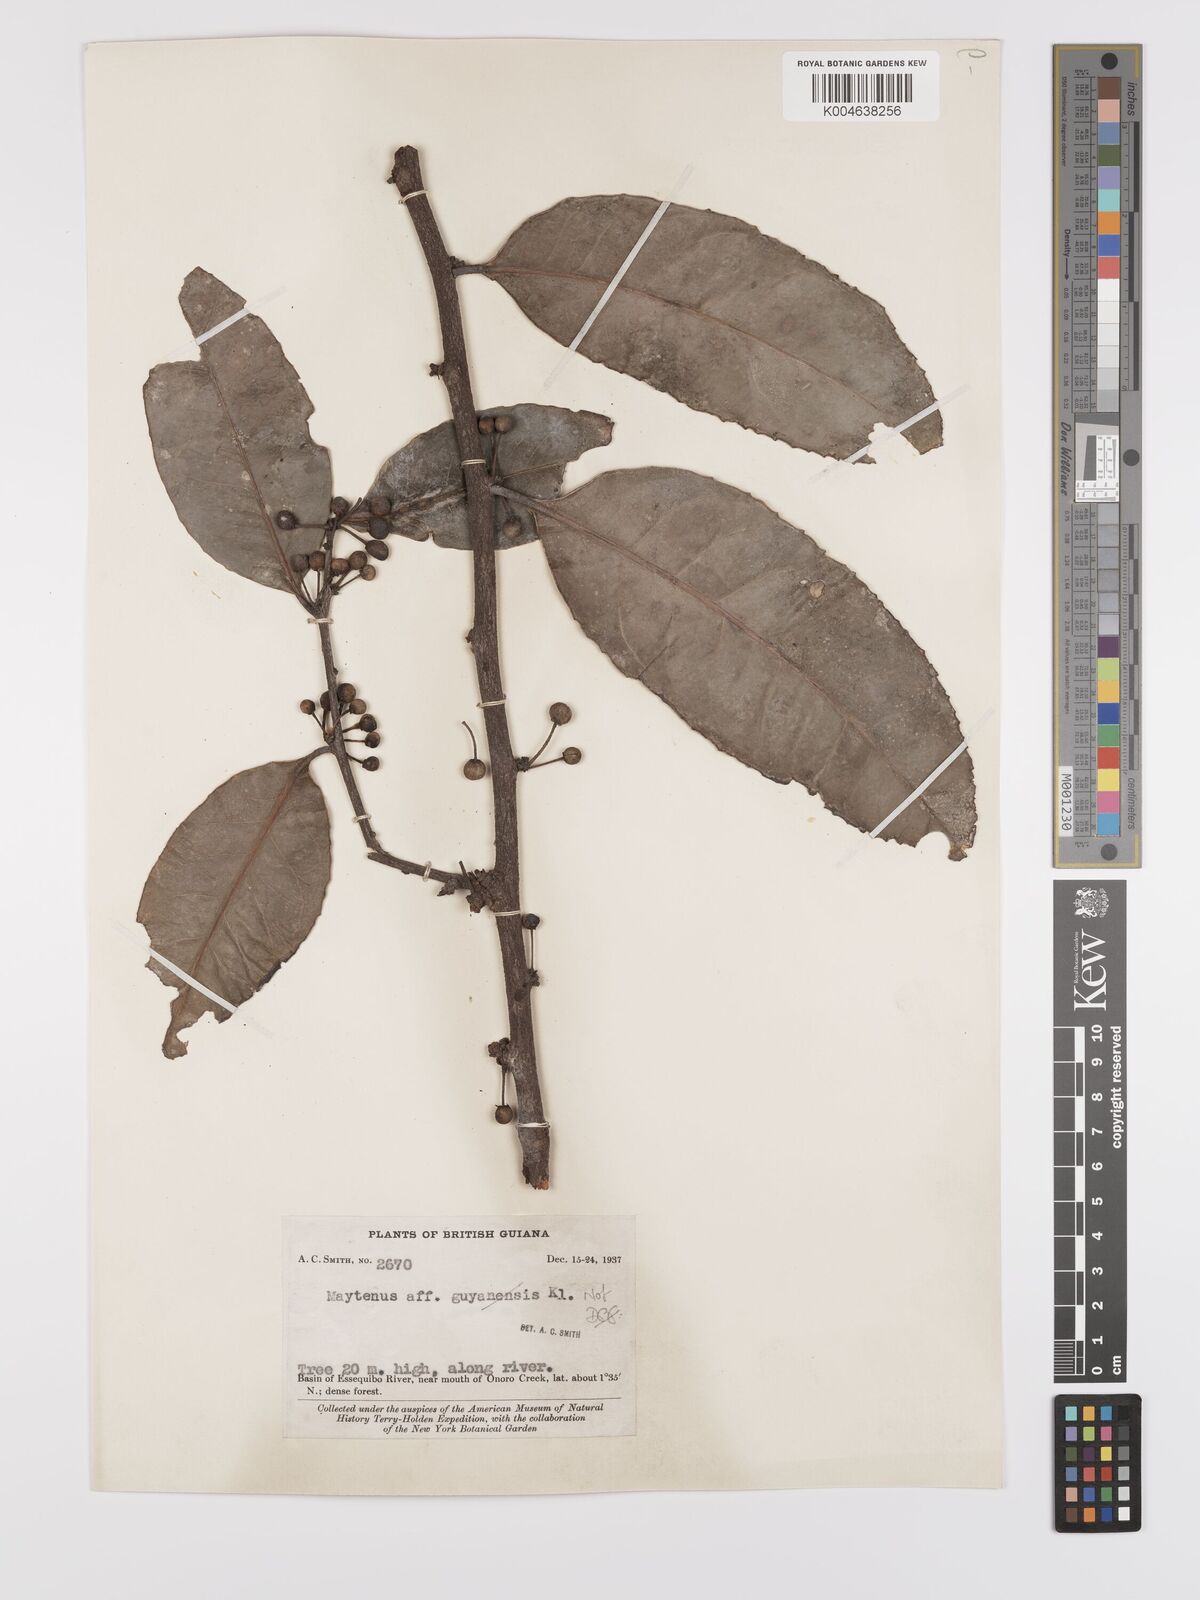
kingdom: Plantae
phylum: Tracheophyta
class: Magnoliopsida
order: Celastrales
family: Celastraceae
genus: Maytenus
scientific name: Maytenus
